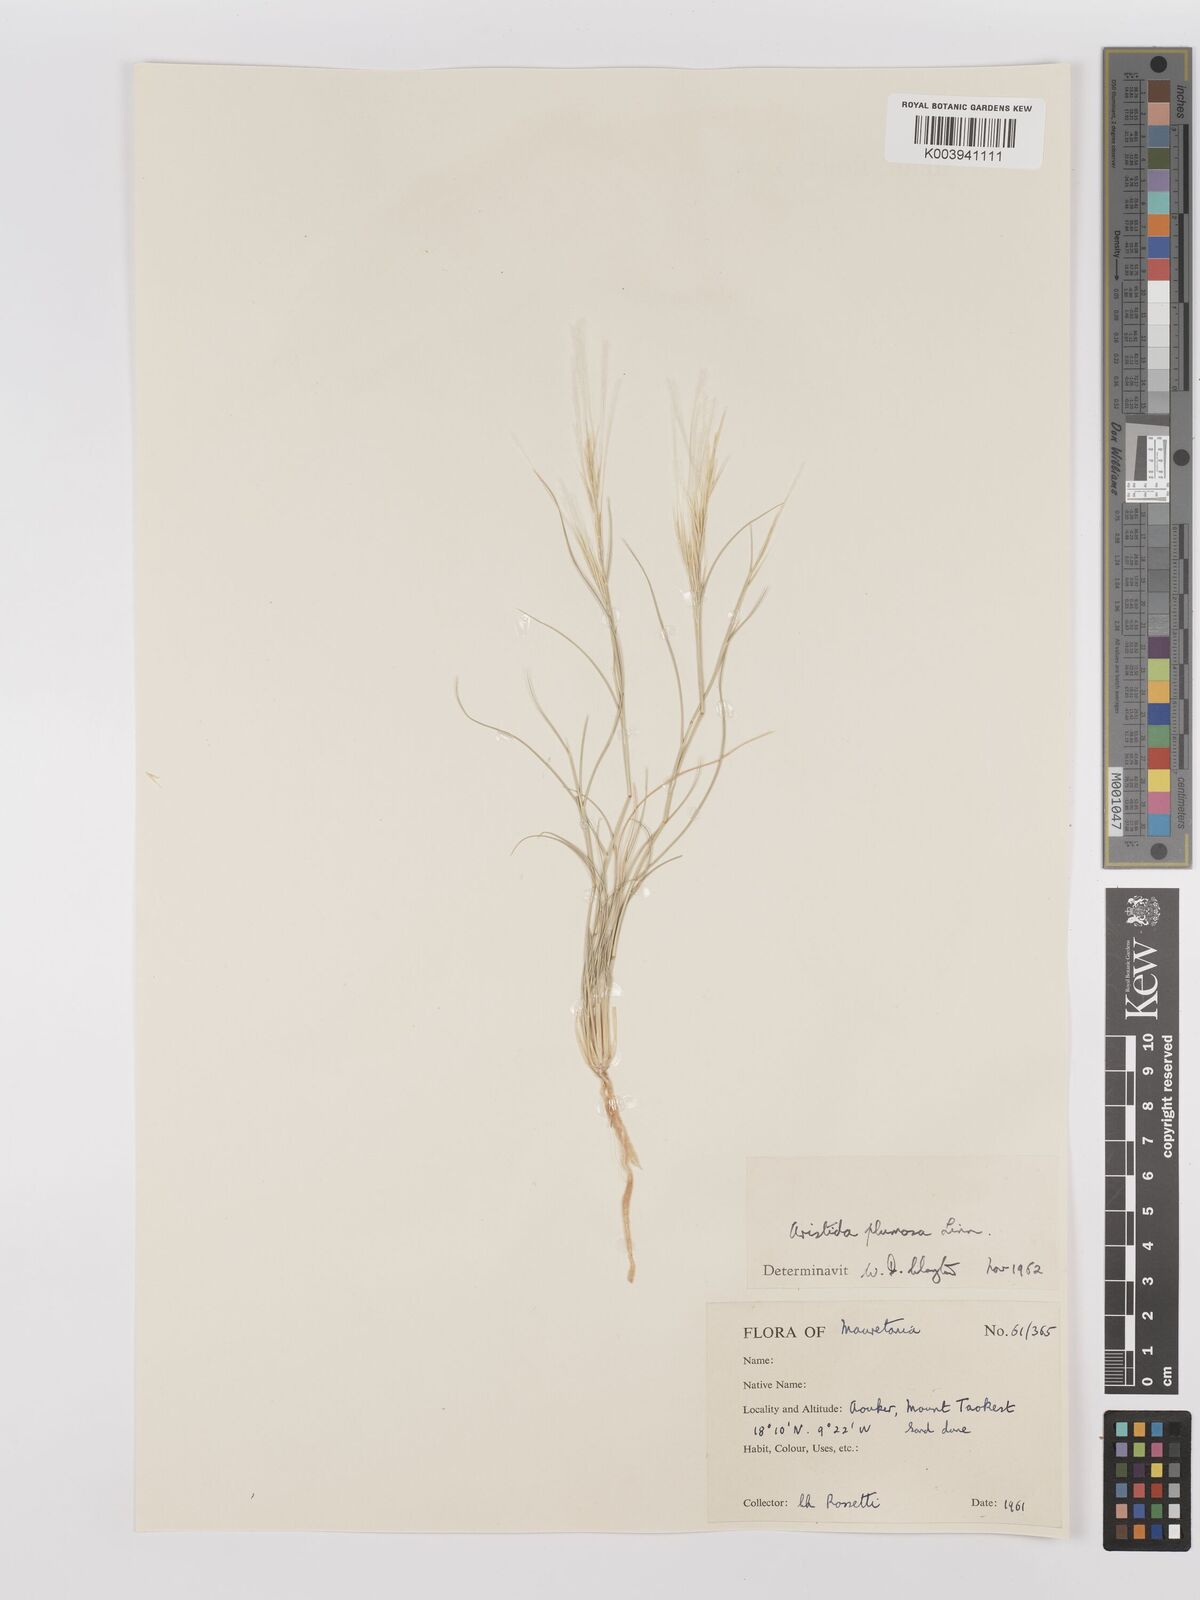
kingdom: Plantae
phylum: Tracheophyta
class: Liliopsida
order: Poales
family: Poaceae
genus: Stipagrostis
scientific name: Stipagrostis plumosa
